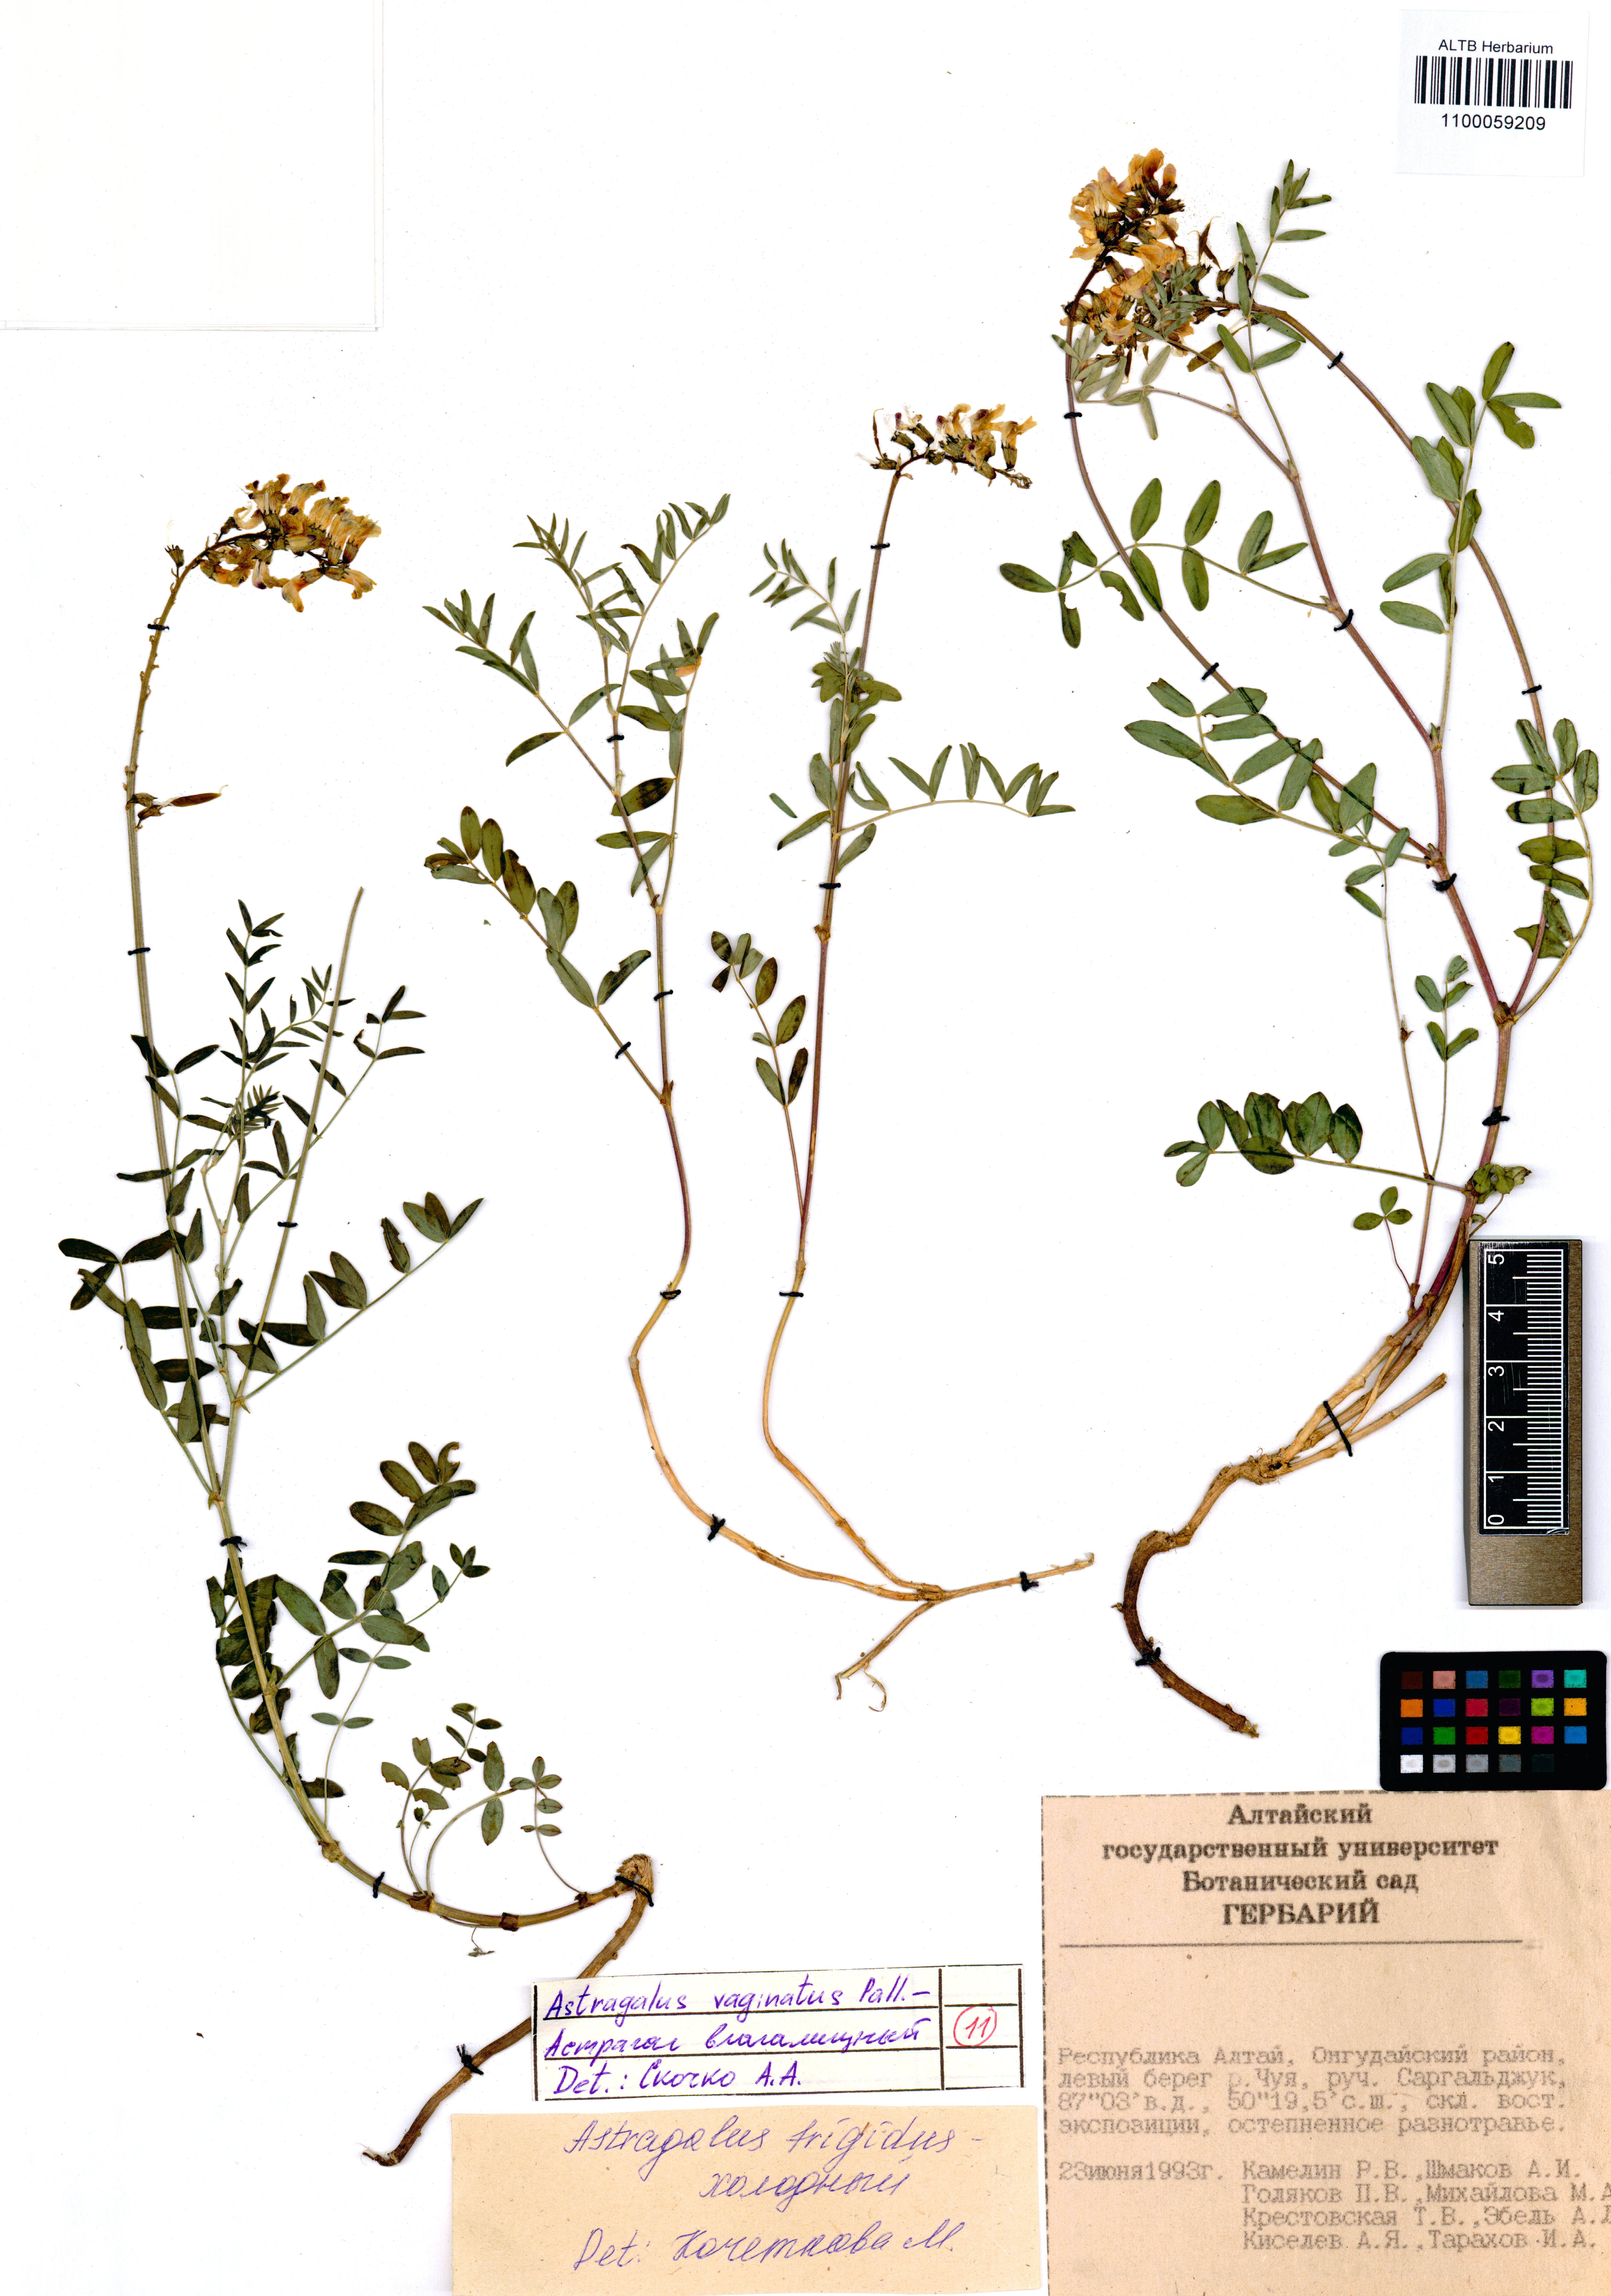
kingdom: Plantae
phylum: Tracheophyta
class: Magnoliopsida
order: Fabales
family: Fabaceae
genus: Astragalus
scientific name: Astragalus vaginatus
